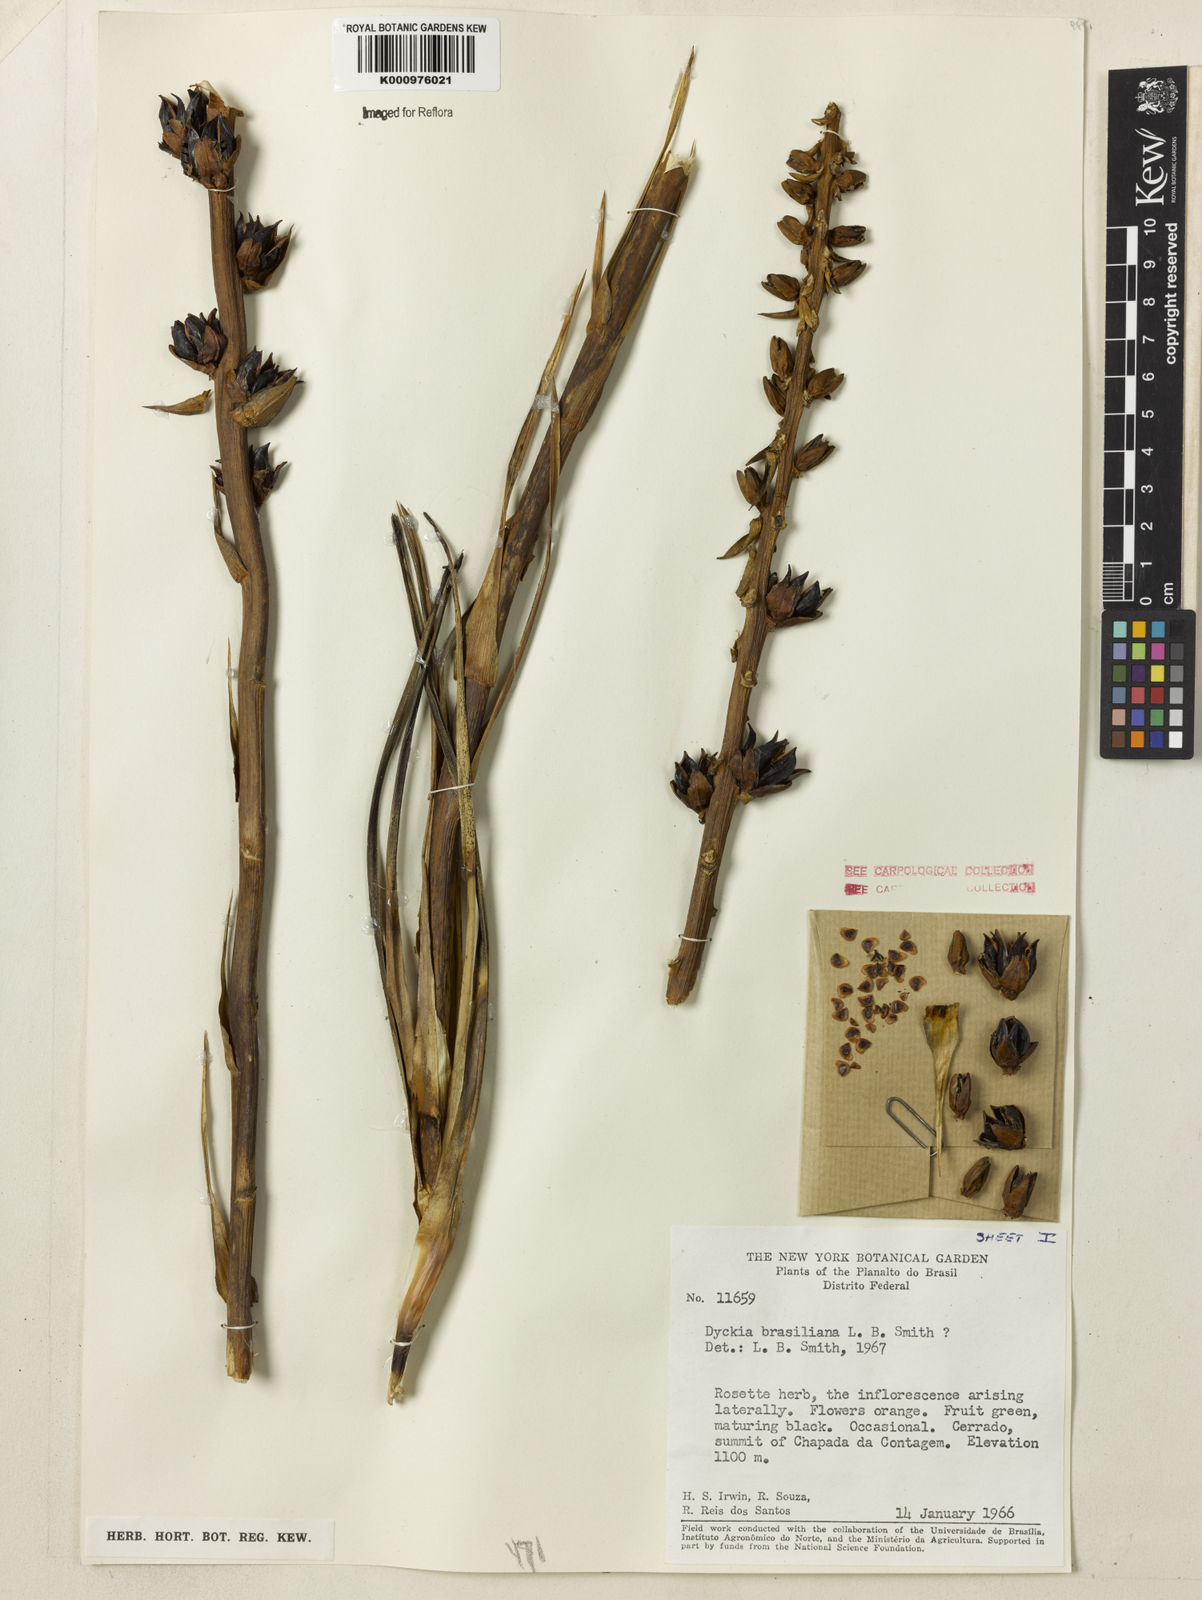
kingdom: Plantae
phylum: Tracheophyta
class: Liliopsida
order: Poales
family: Bromeliaceae
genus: Dyckia
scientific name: Dyckia brasiliana
